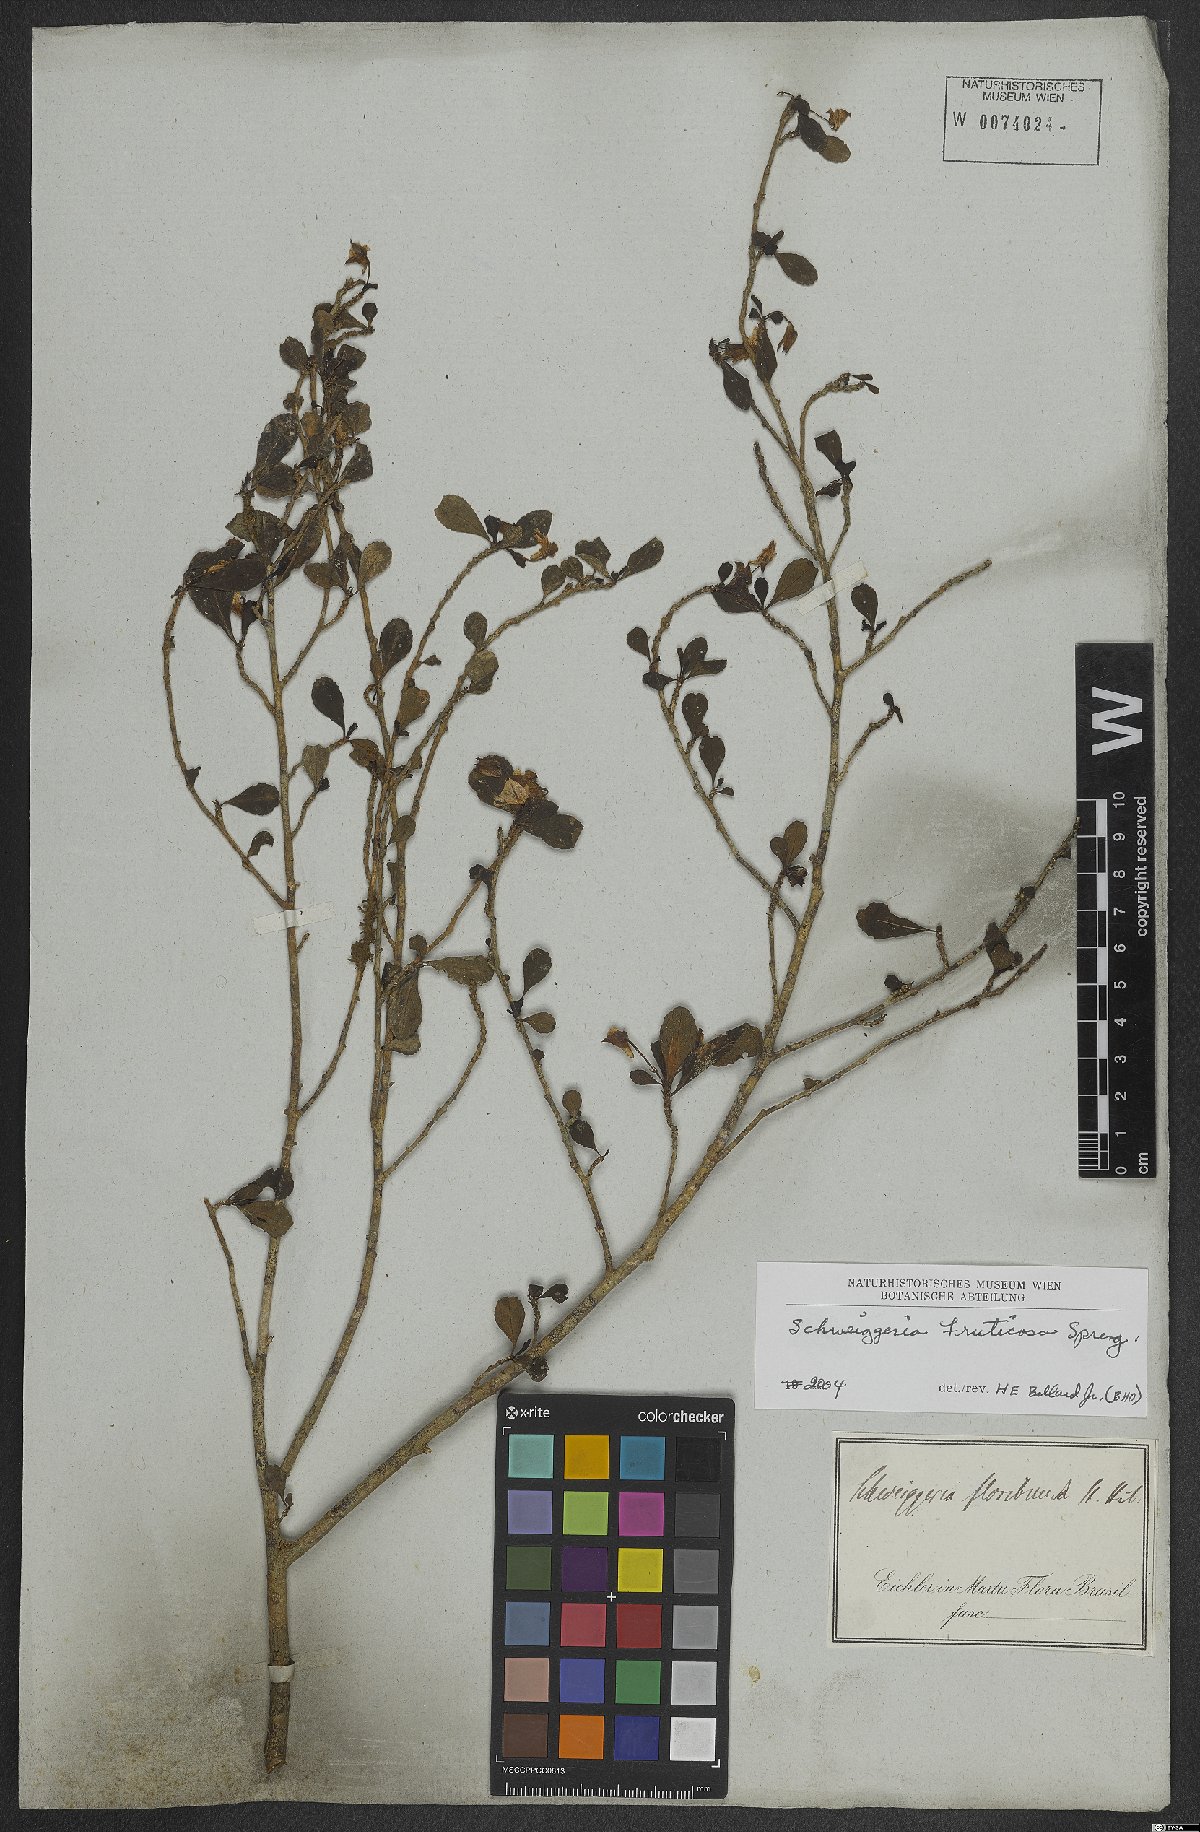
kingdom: Plantae
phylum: Tracheophyta
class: Magnoliopsida
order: Malpighiales
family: Violaceae
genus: Schweiggeria
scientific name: Schweiggeria fruticosa
